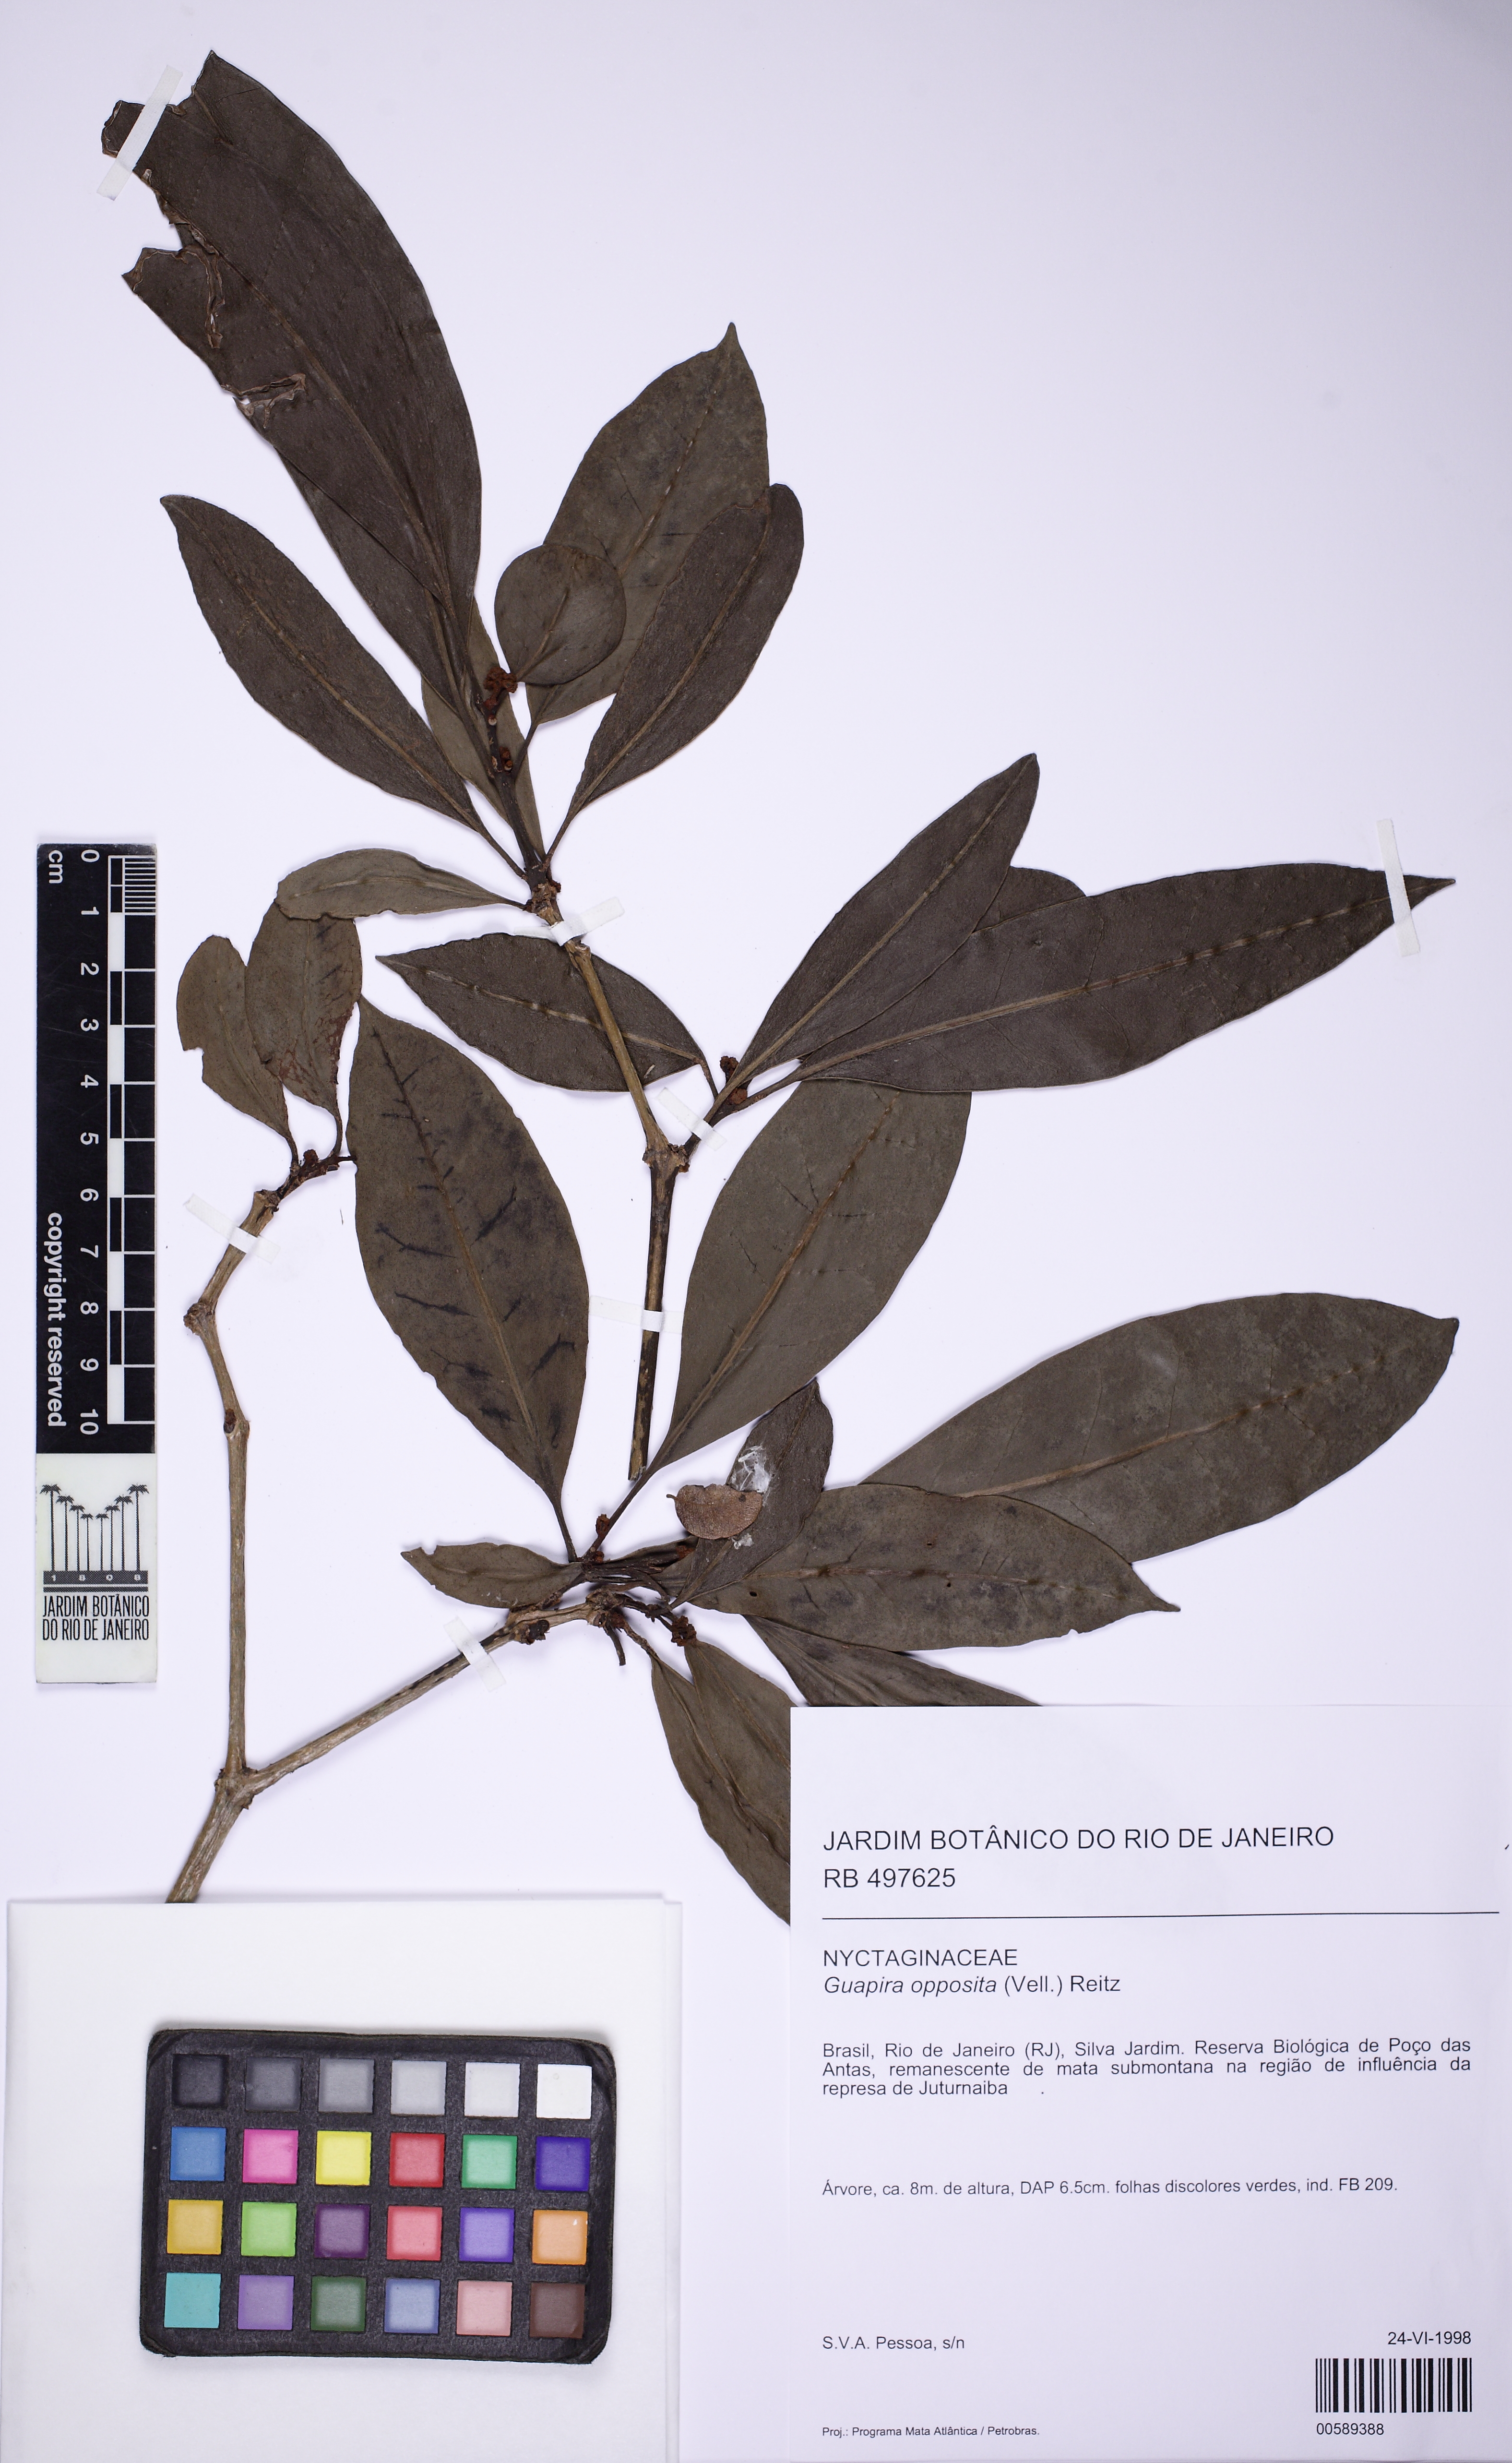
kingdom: Plantae
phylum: Tracheophyta
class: Magnoliopsida
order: Caryophyllales
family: Nyctaginaceae
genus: Guapira
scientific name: Guapira opposita
